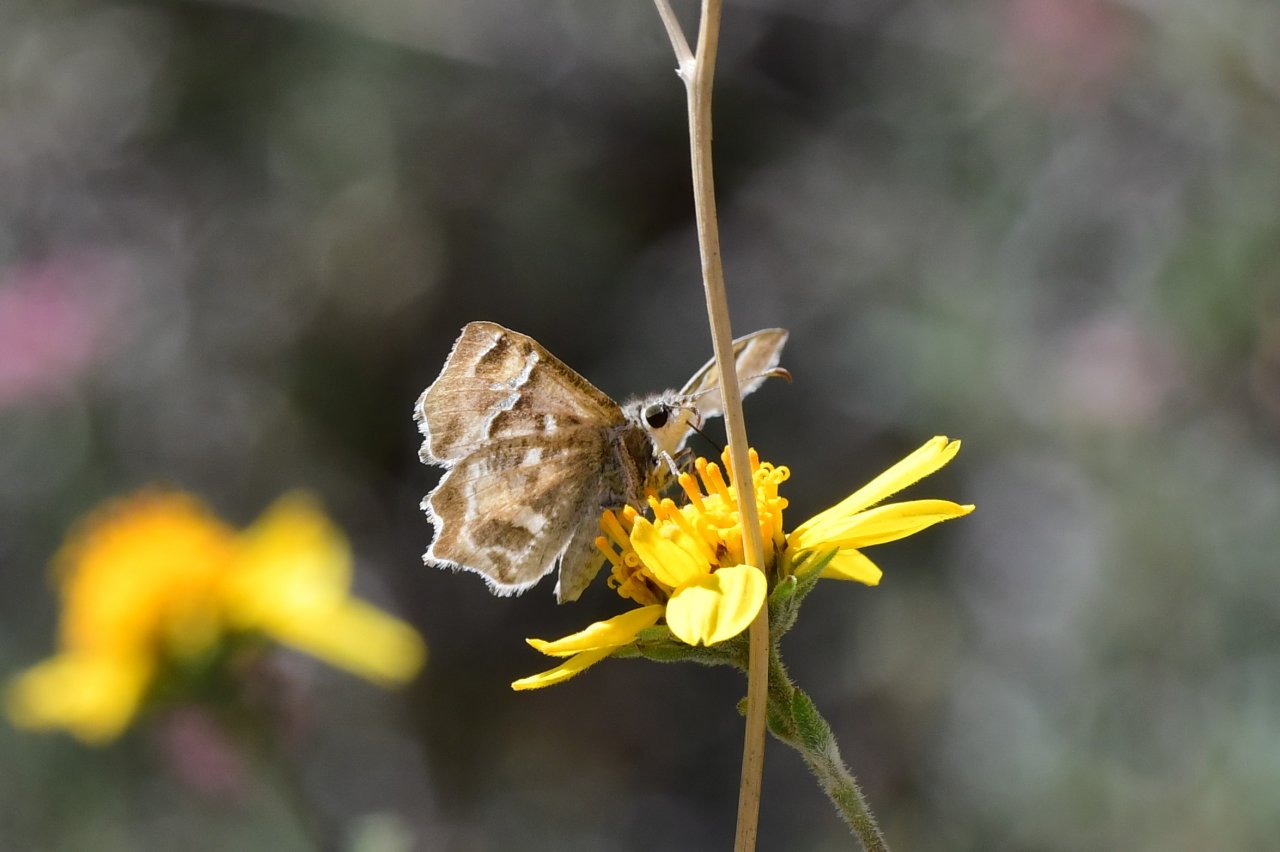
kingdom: Animalia
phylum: Arthropoda
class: Insecta
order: Lepidoptera
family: Hesperiidae
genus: Systasea
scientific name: Systasea zampa
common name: Arizona Powdered-Skipper
